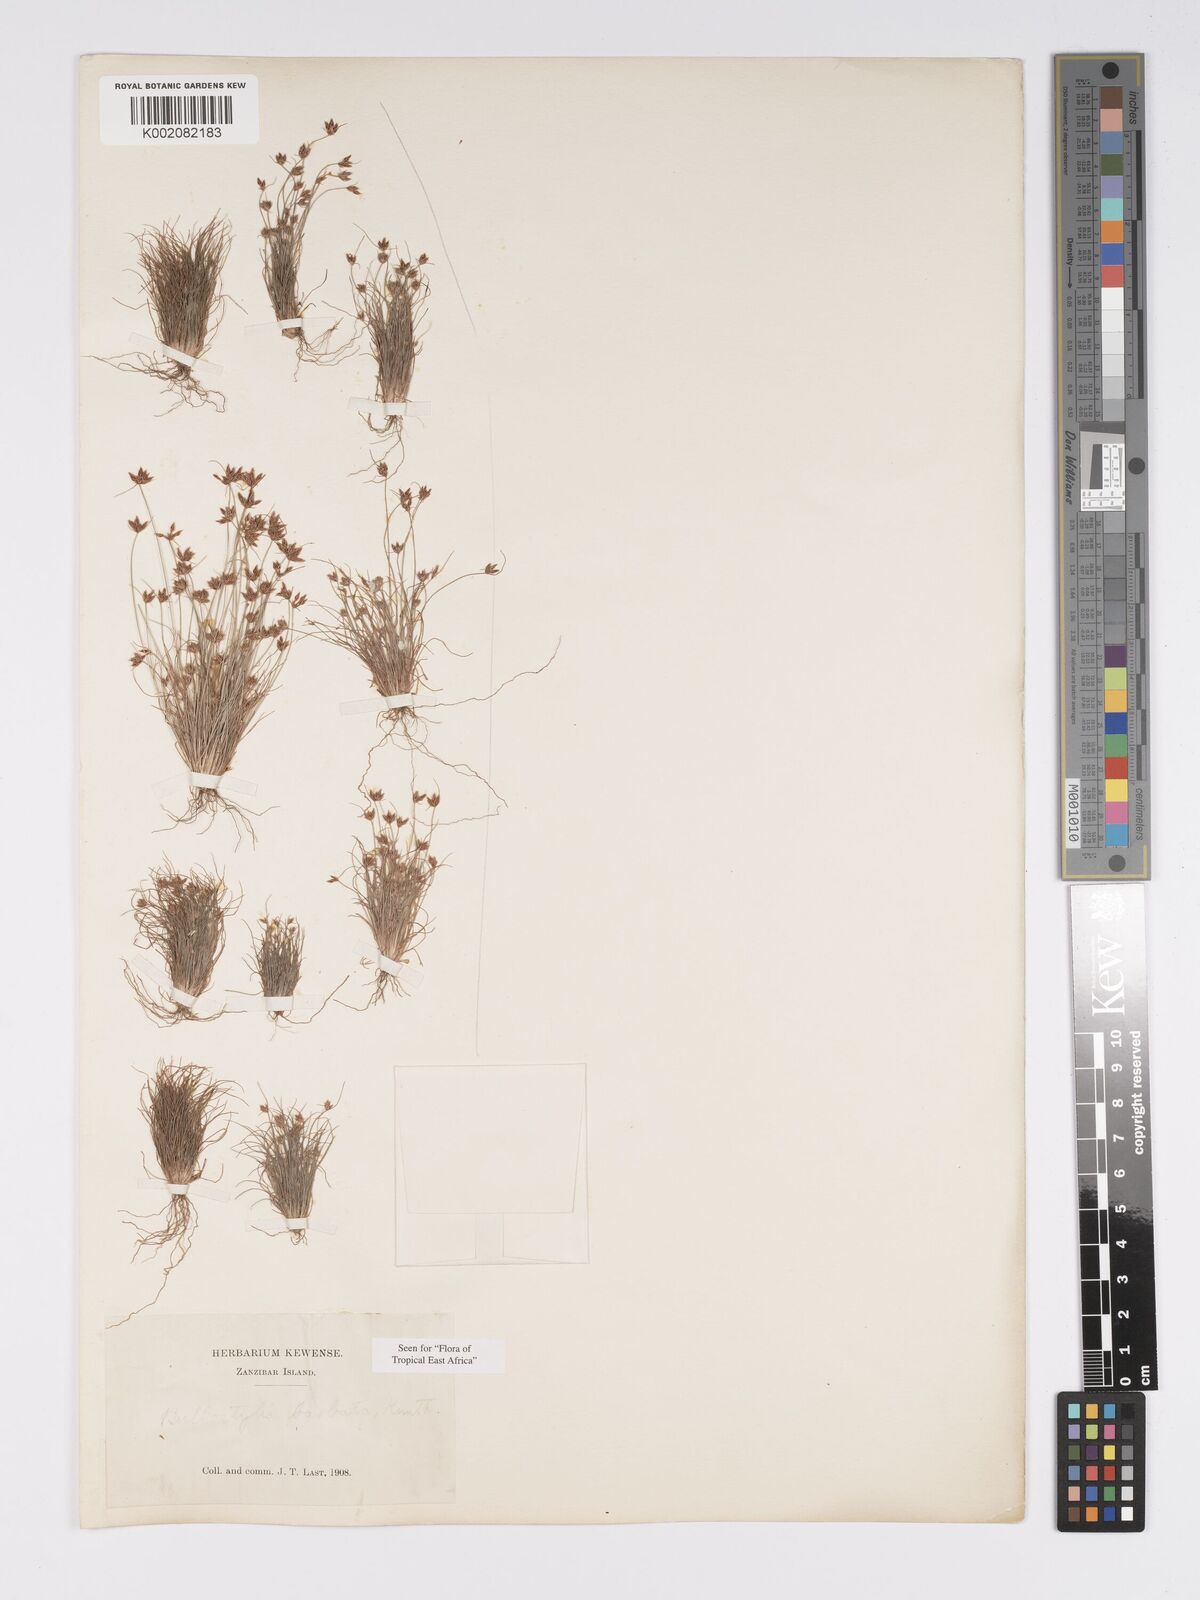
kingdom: Plantae
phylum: Tracheophyta
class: Liliopsida
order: Poales
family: Cyperaceae
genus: Bulbostylis
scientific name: Bulbostylis barbata
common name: Watergrass
